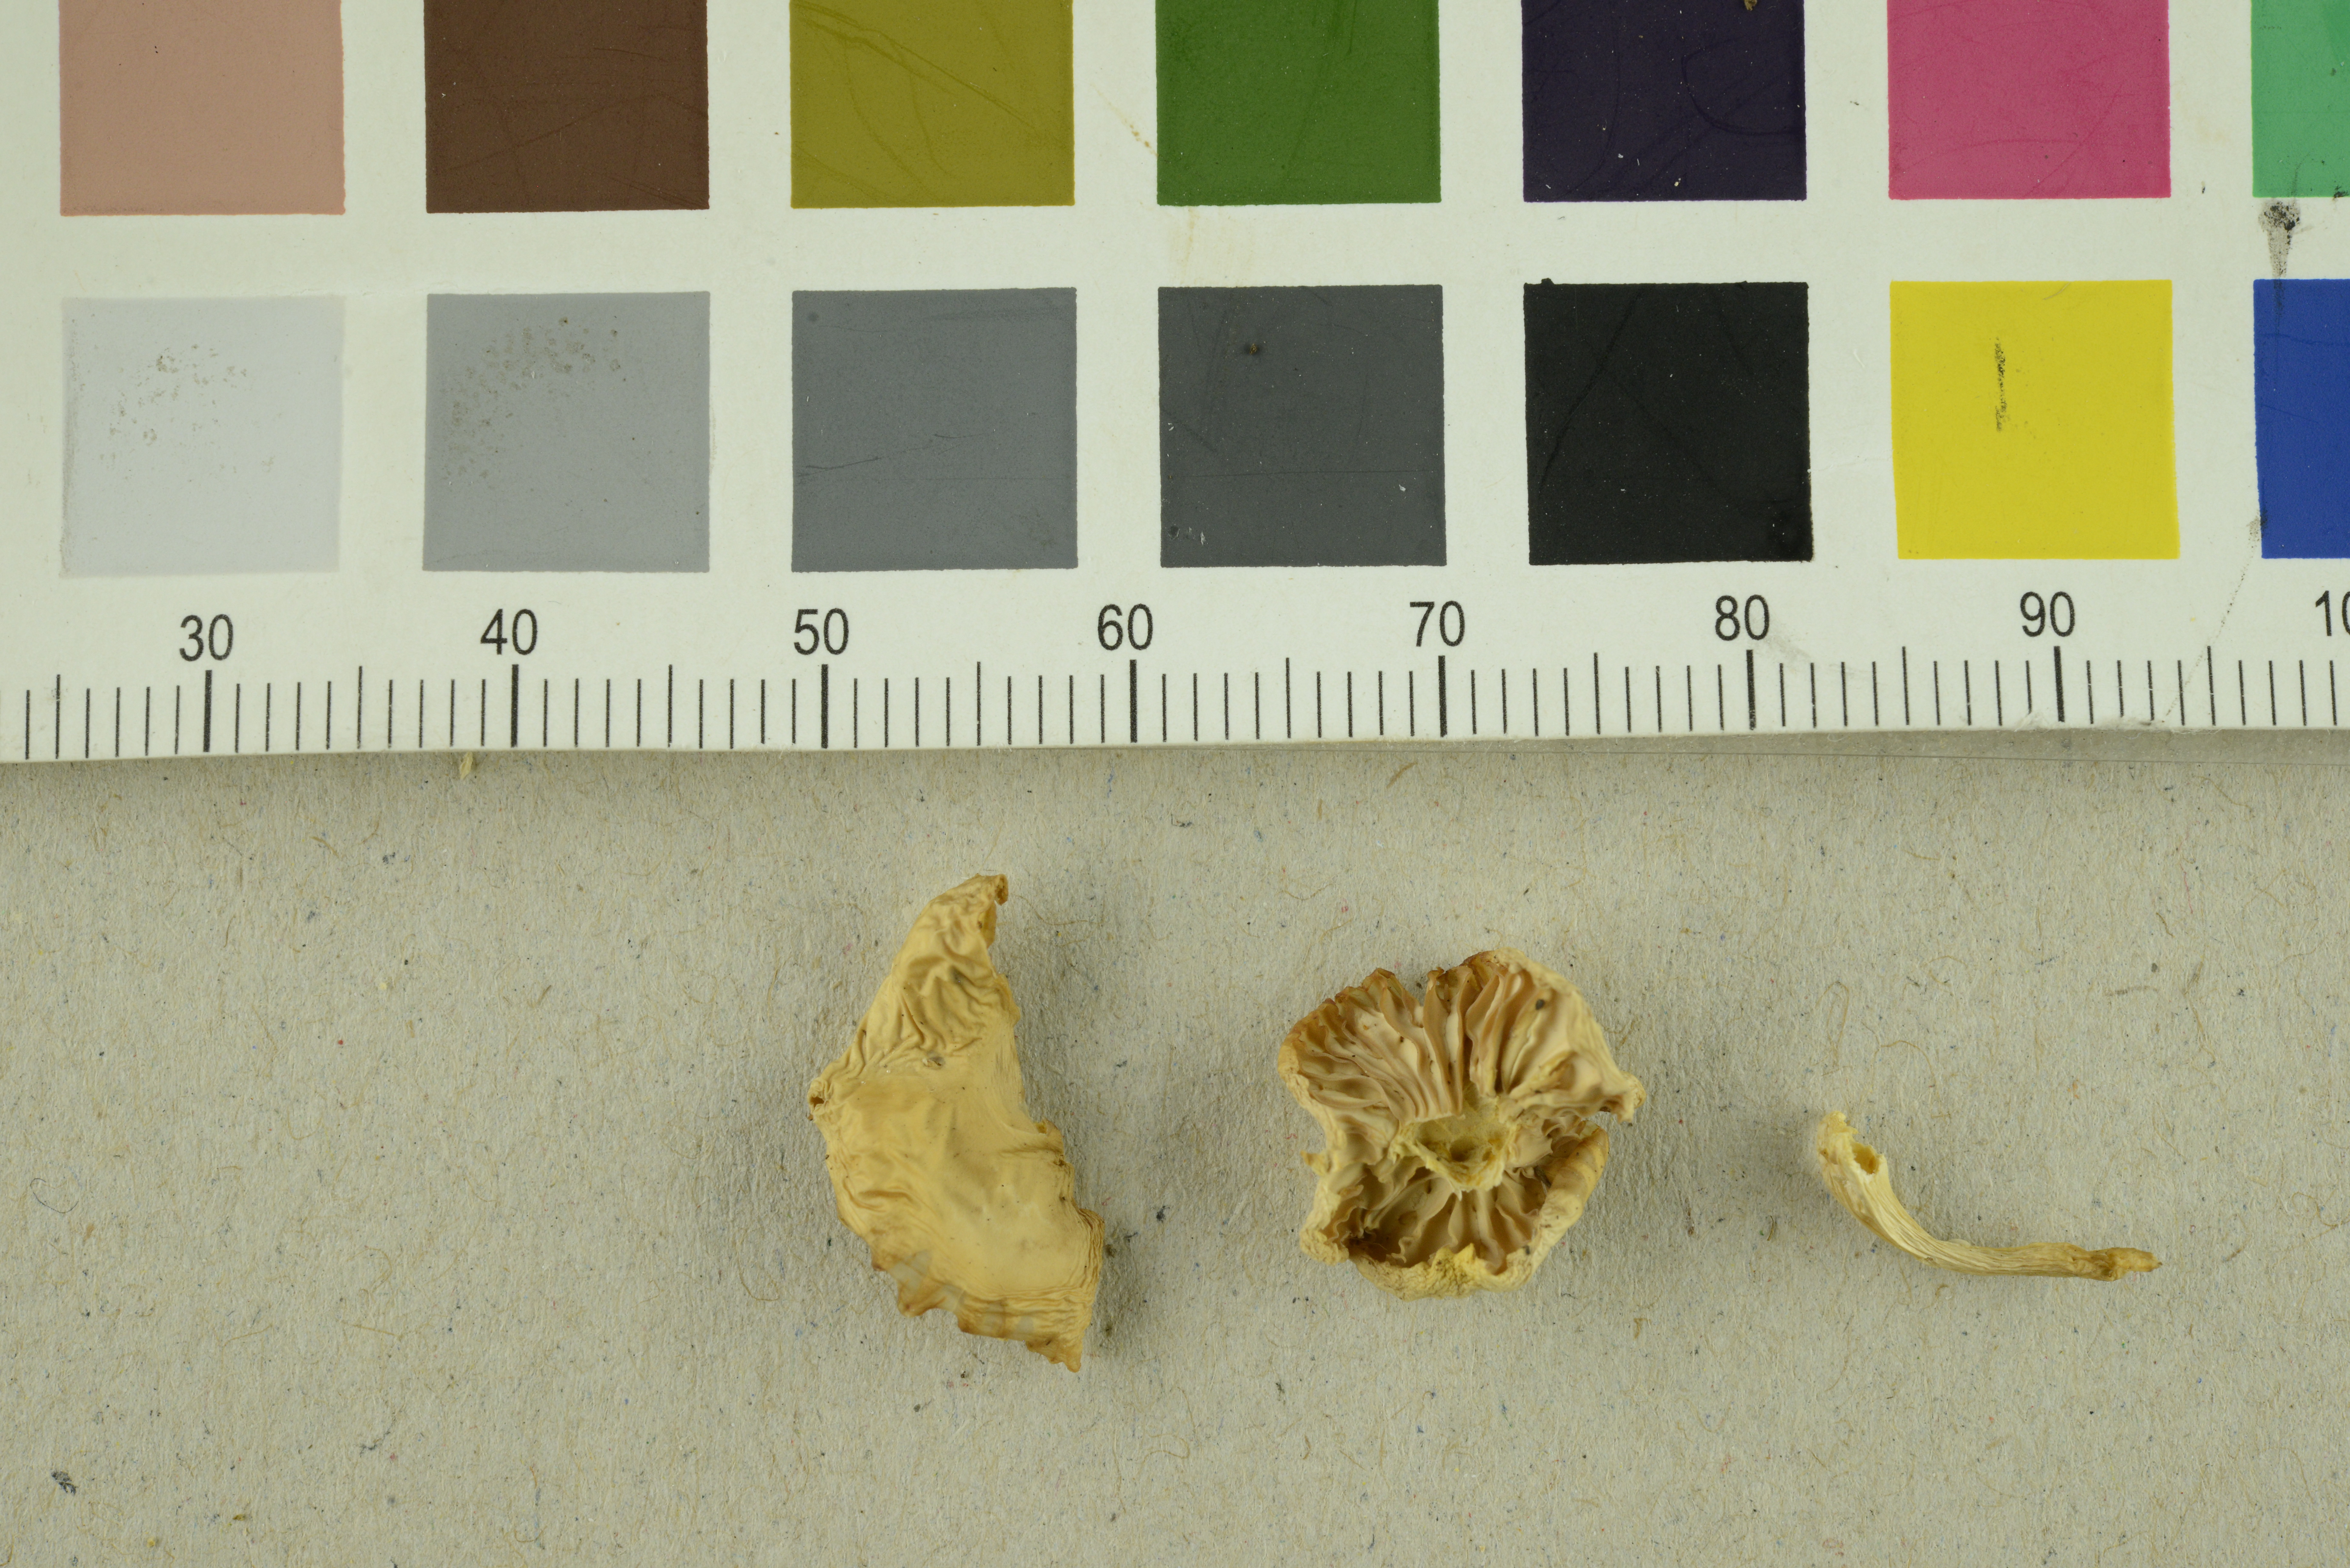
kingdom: Fungi
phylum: Basidiomycota
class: Agaricomycetes
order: Agaricales
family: Hygrophoraceae
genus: Chromosera
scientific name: Chromosera xanthochroa
